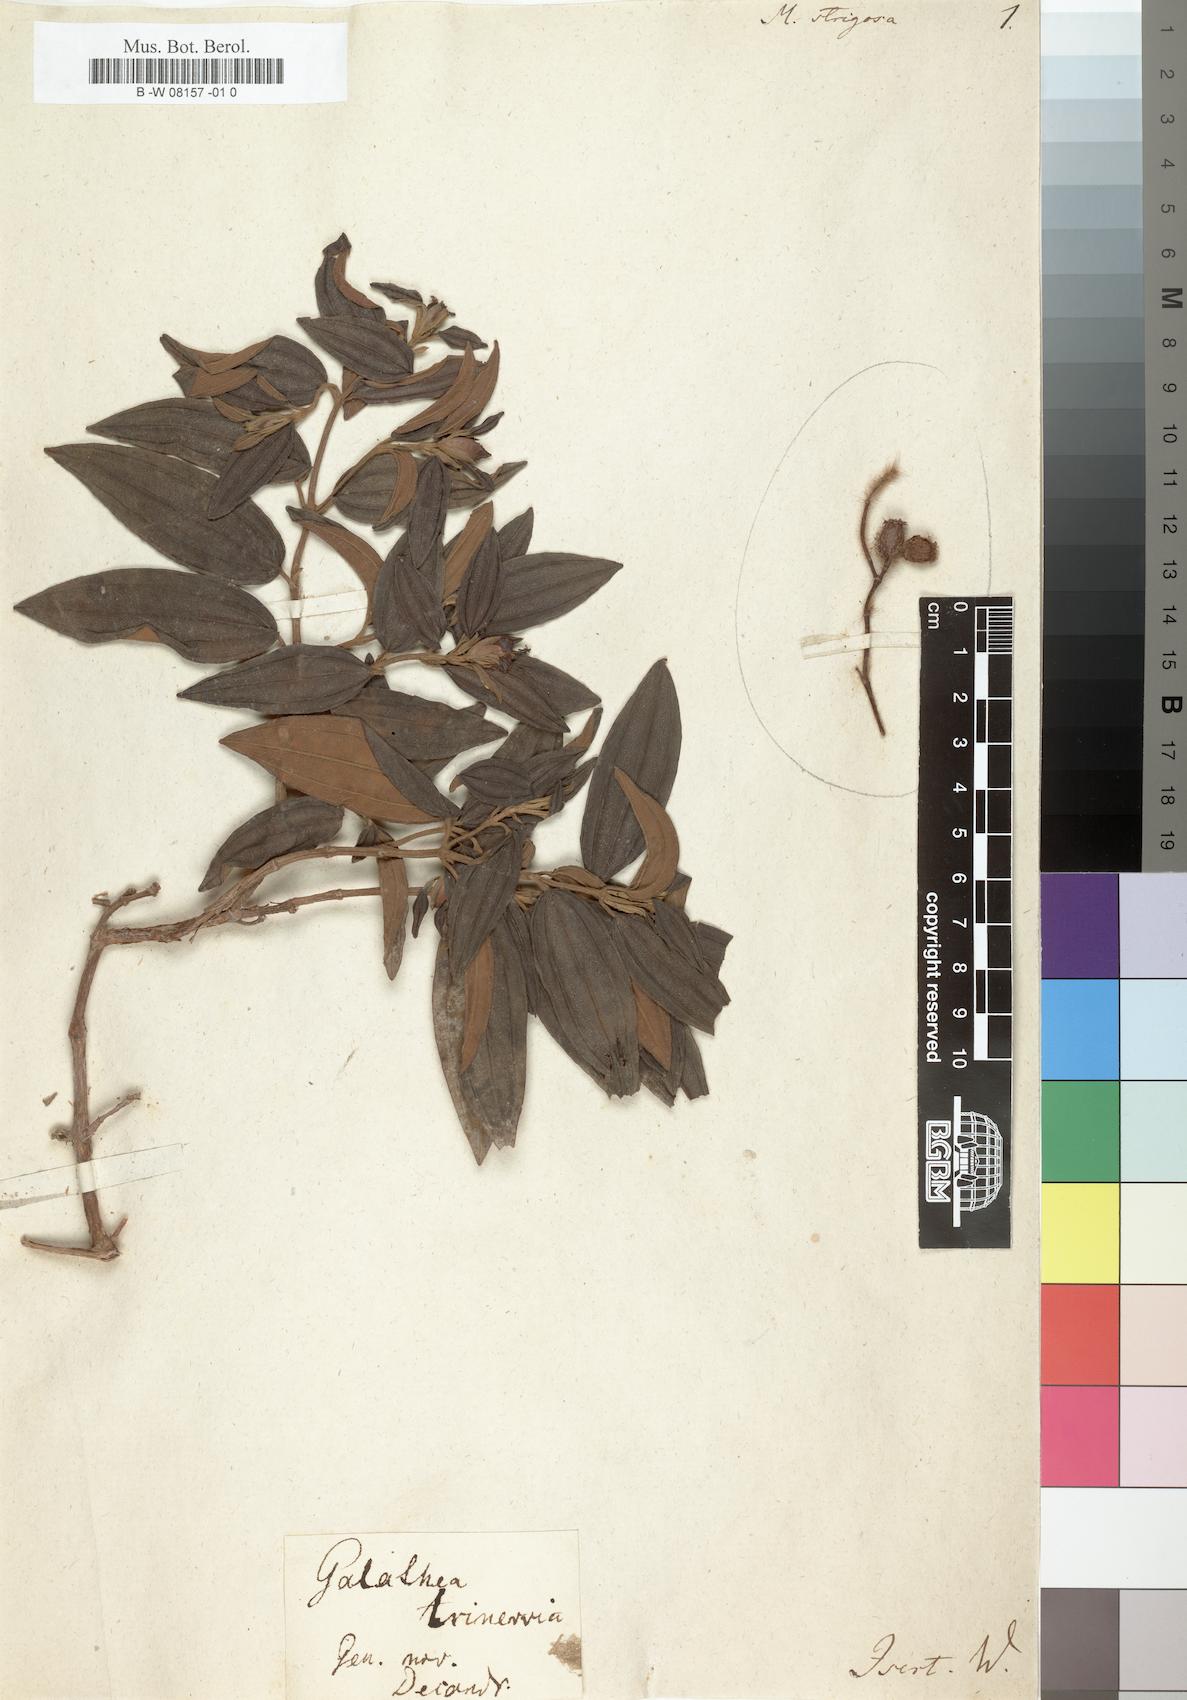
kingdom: Plantae
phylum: Tracheophyta
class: Magnoliopsida
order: Myrtales
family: Melastomataceae
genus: Meriania
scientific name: Meriania
